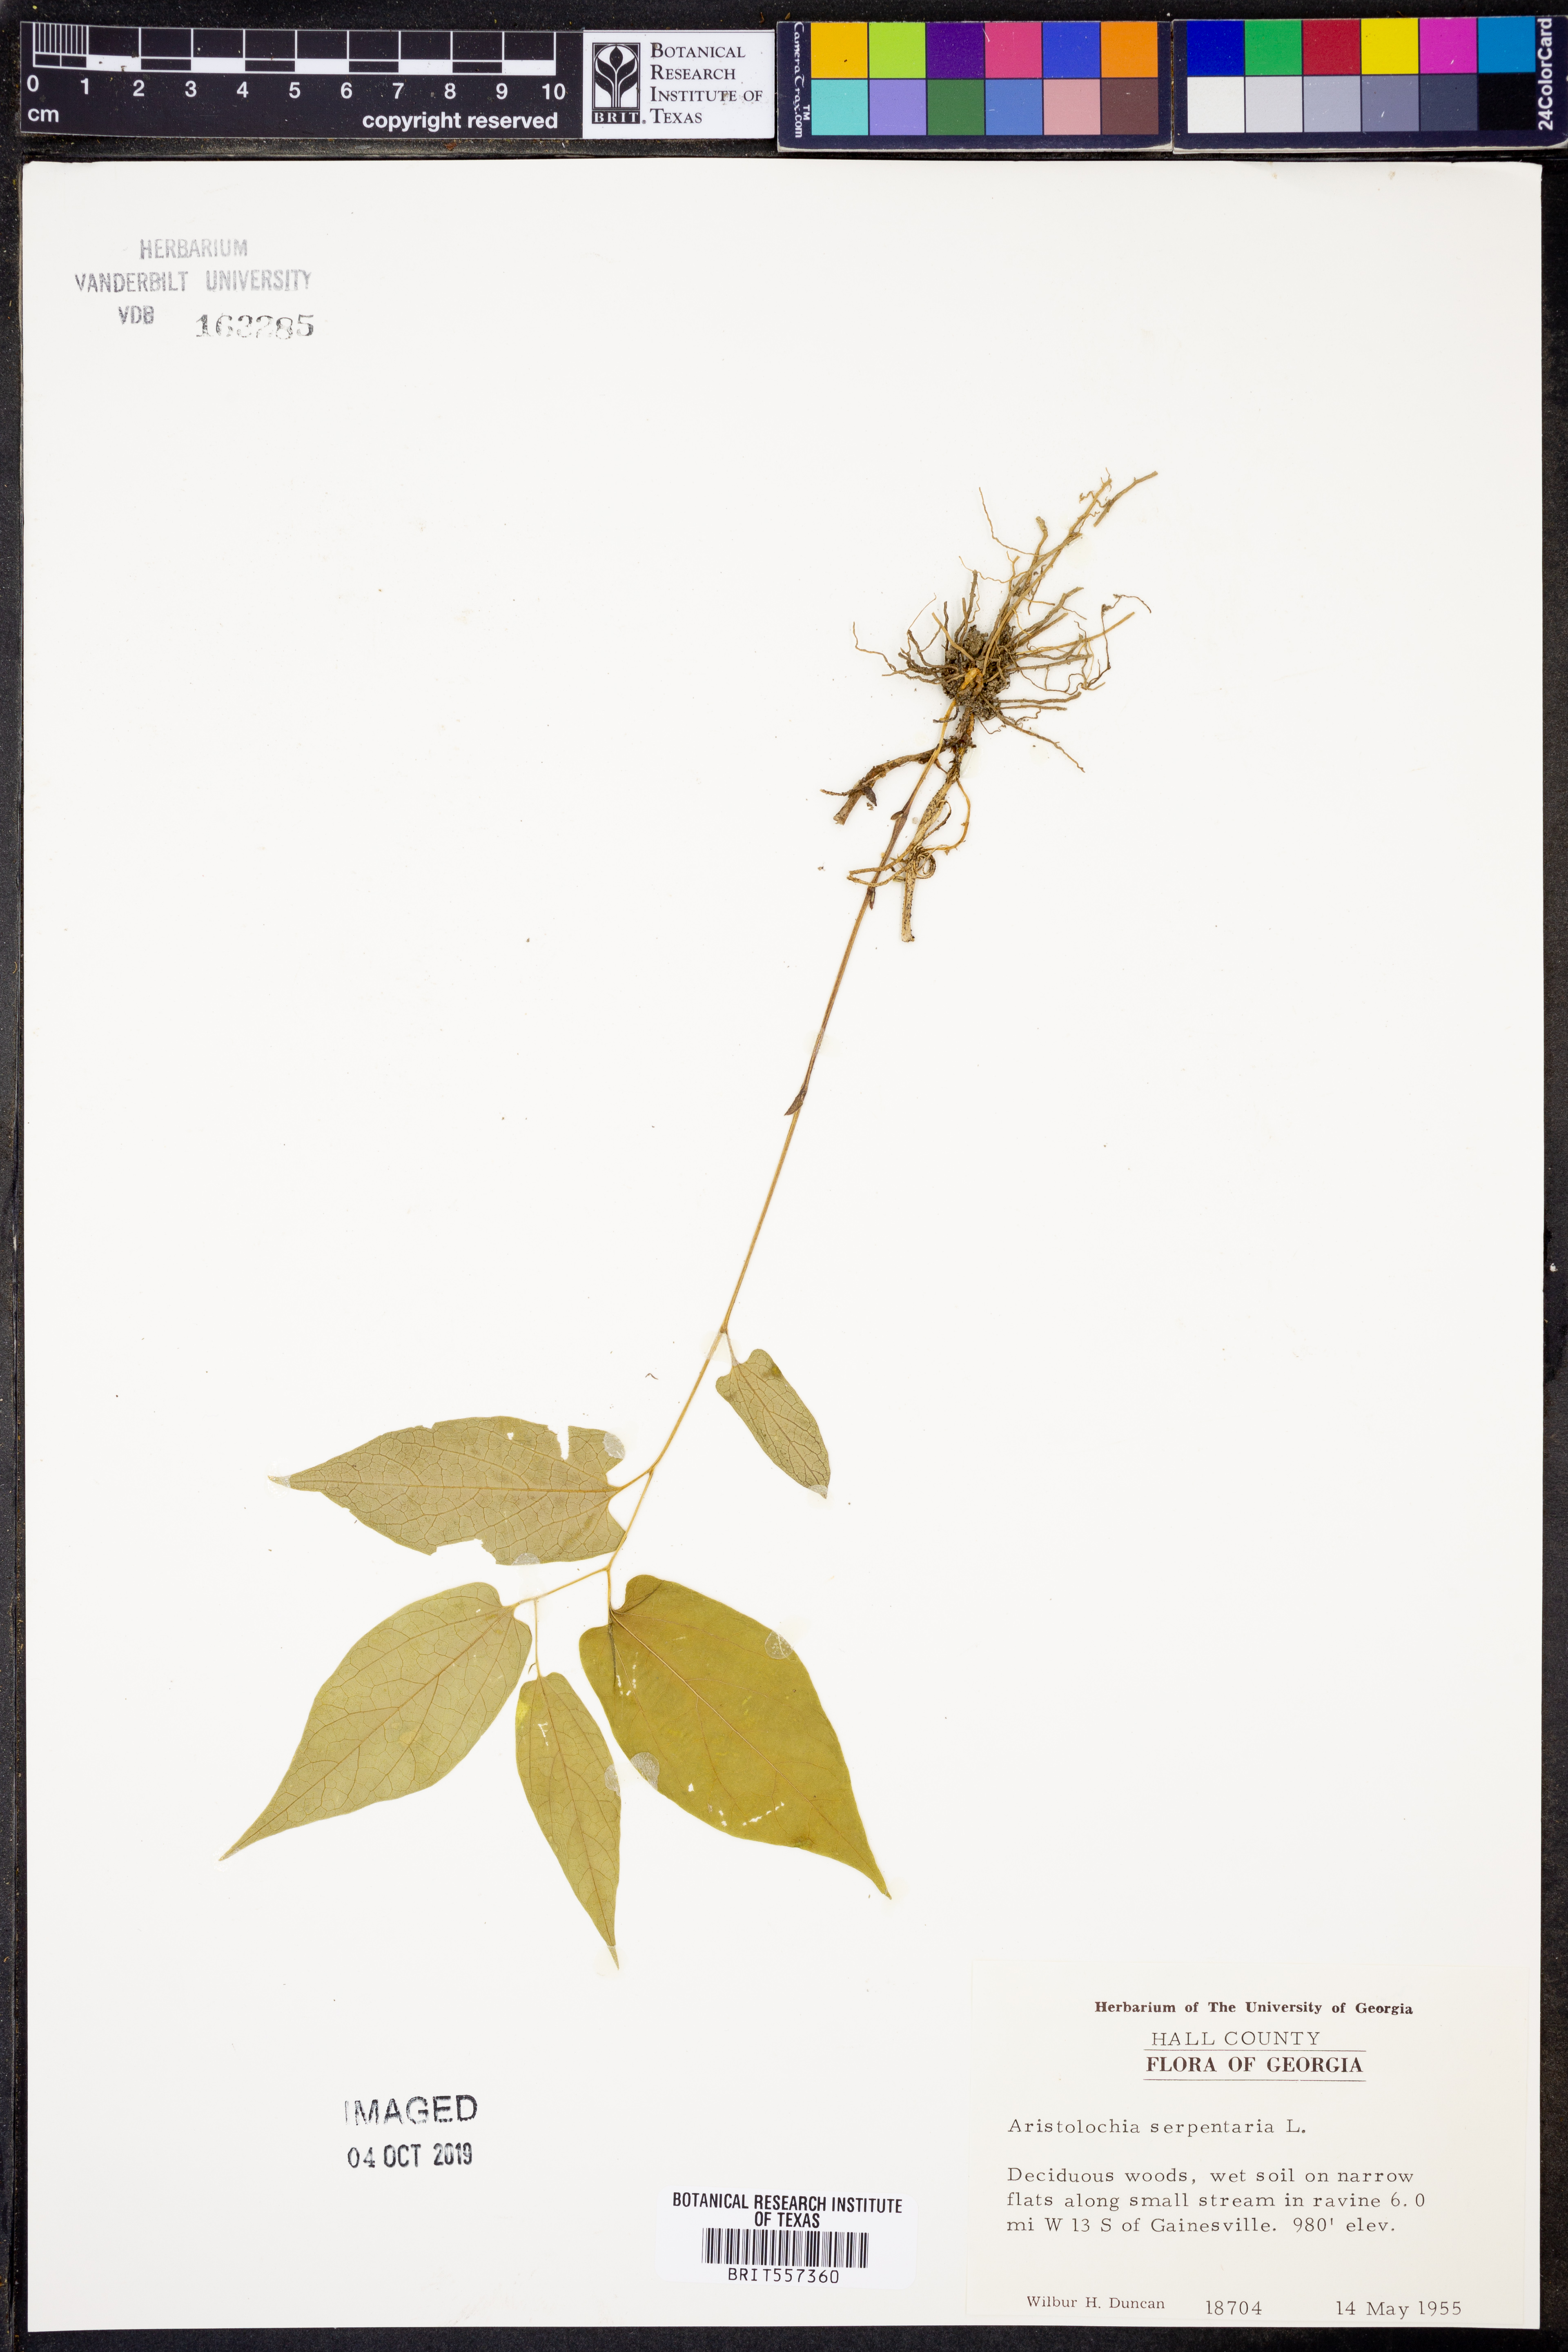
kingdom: Plantae
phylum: Tracheophyta
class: Magnoliopsida
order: Piperales
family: Aristolochiaceae
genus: Endodeca
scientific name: Endodeca serpentaria
